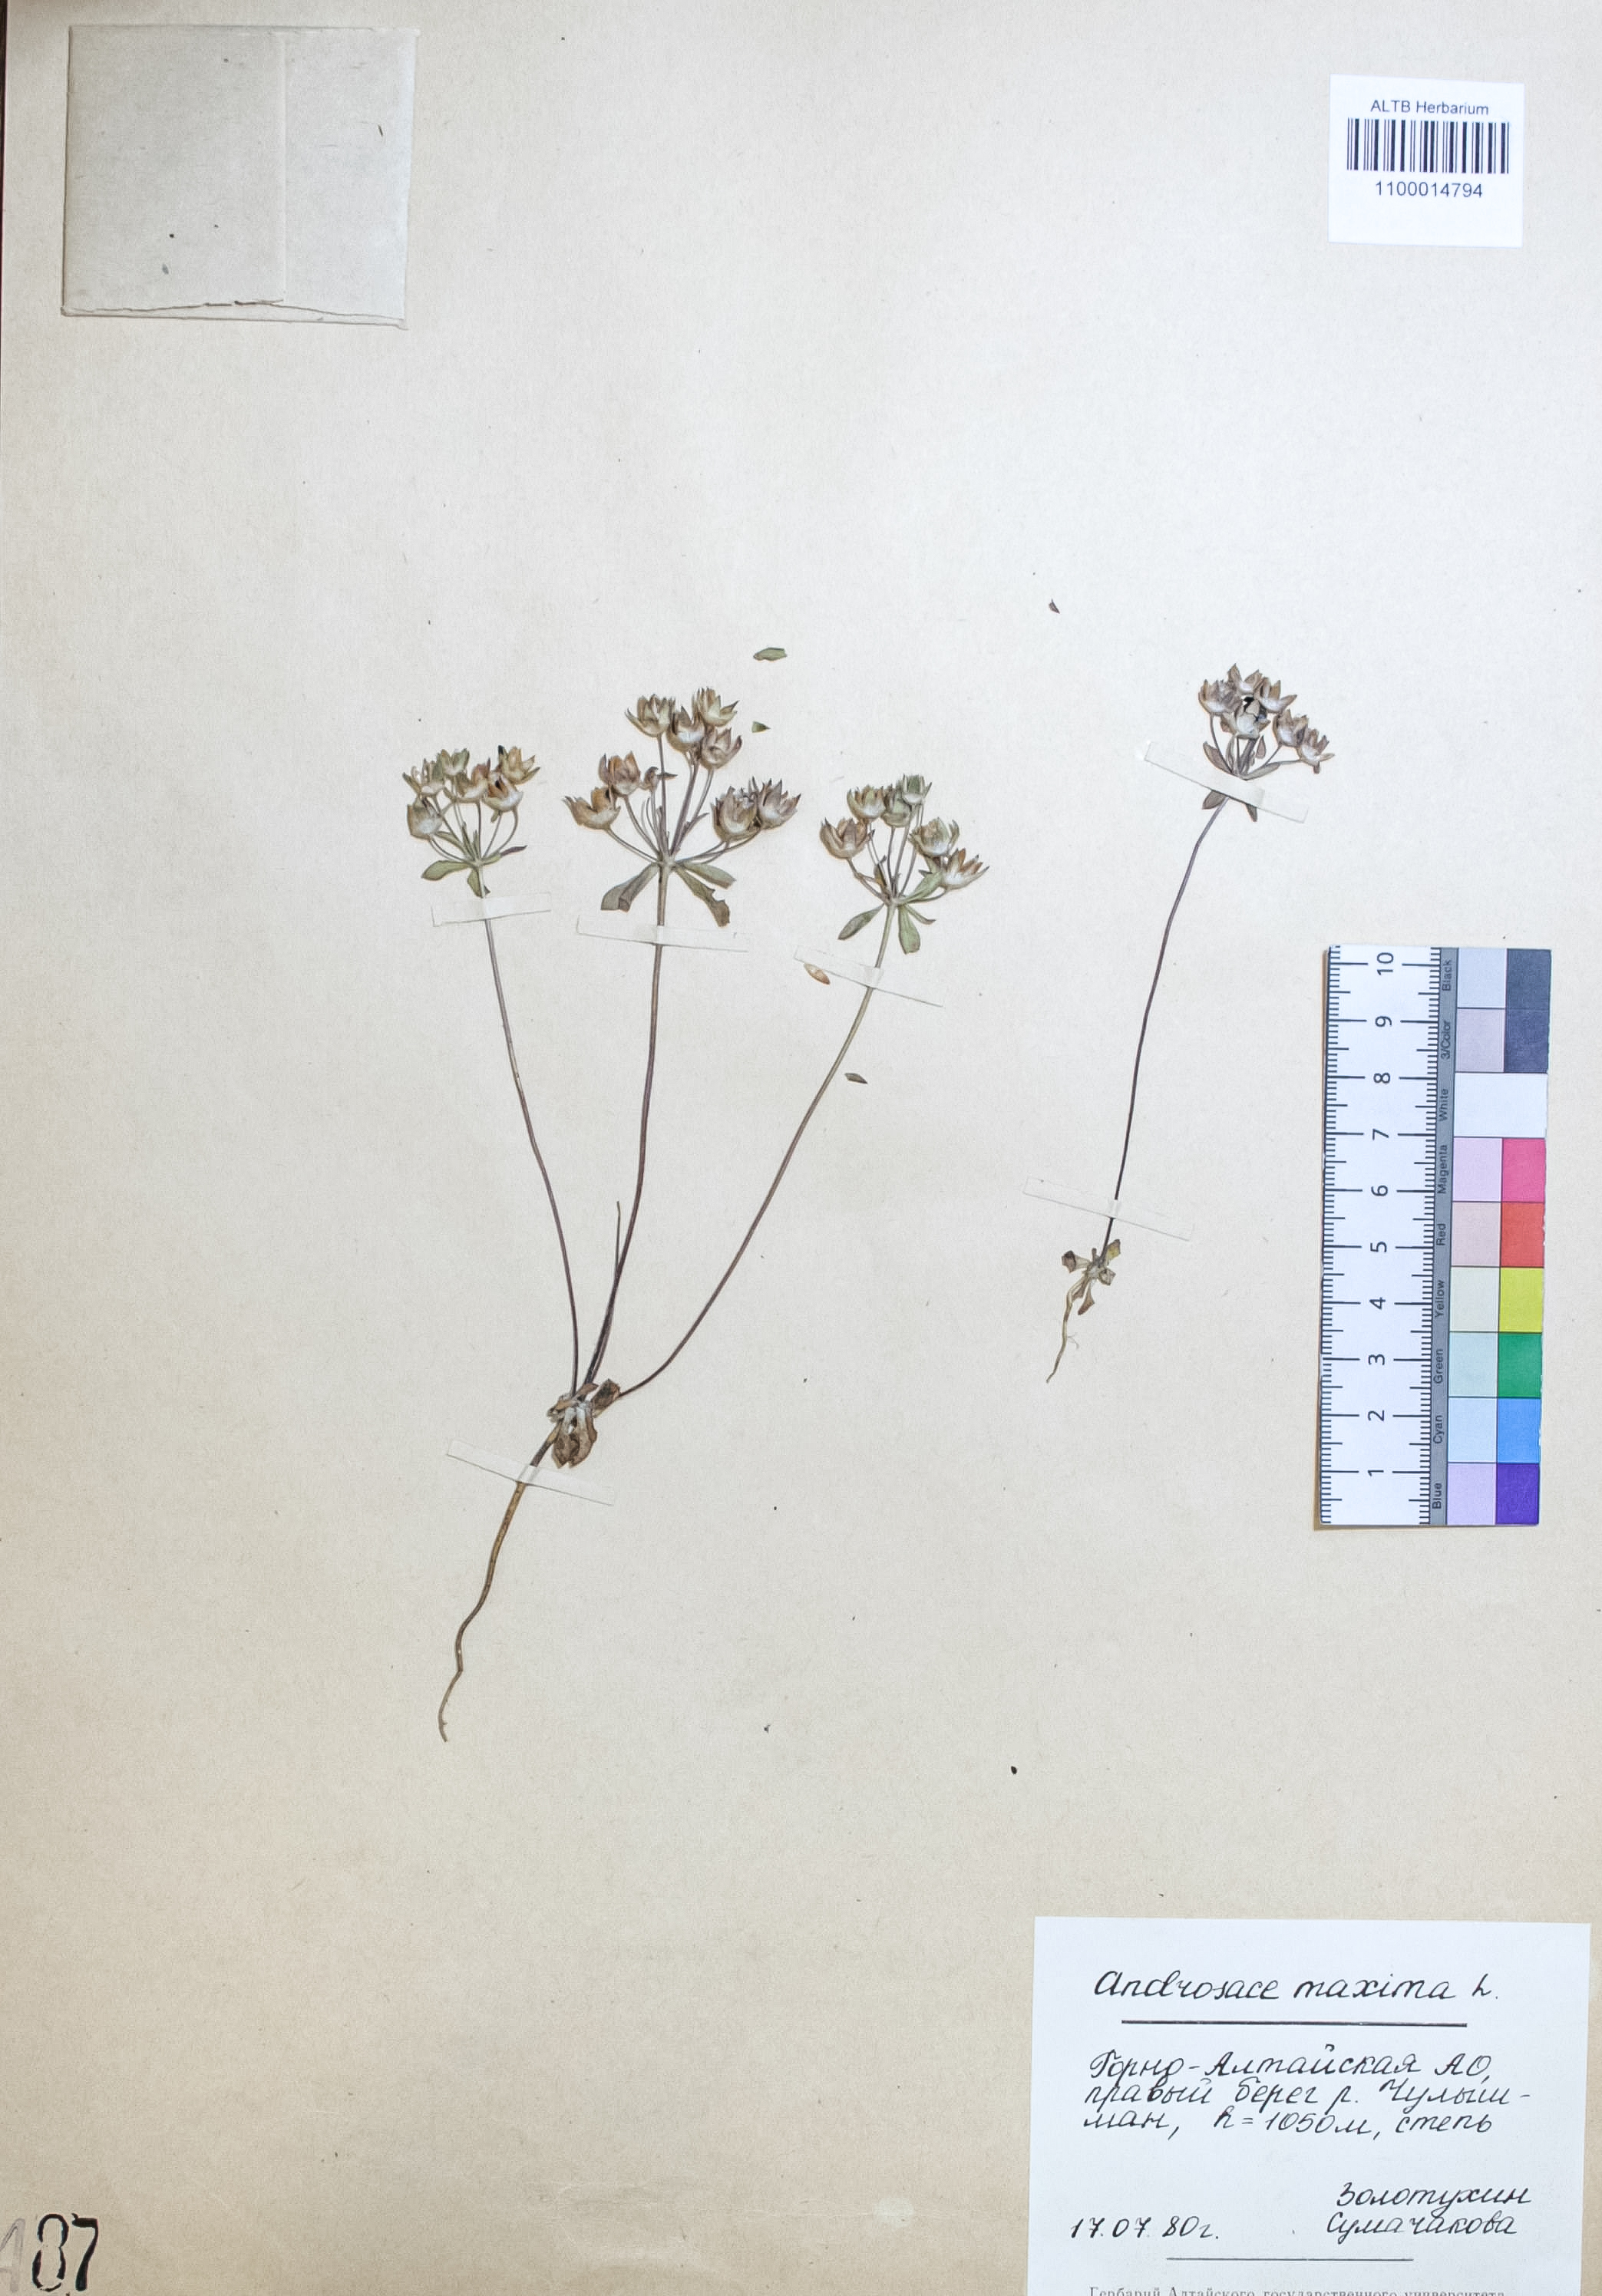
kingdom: Plantae
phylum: Tracheophyta
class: Magnoliopsida
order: Ericales
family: Primulaceae
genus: Androsace
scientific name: Androsace maxima
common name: Annual androsace
